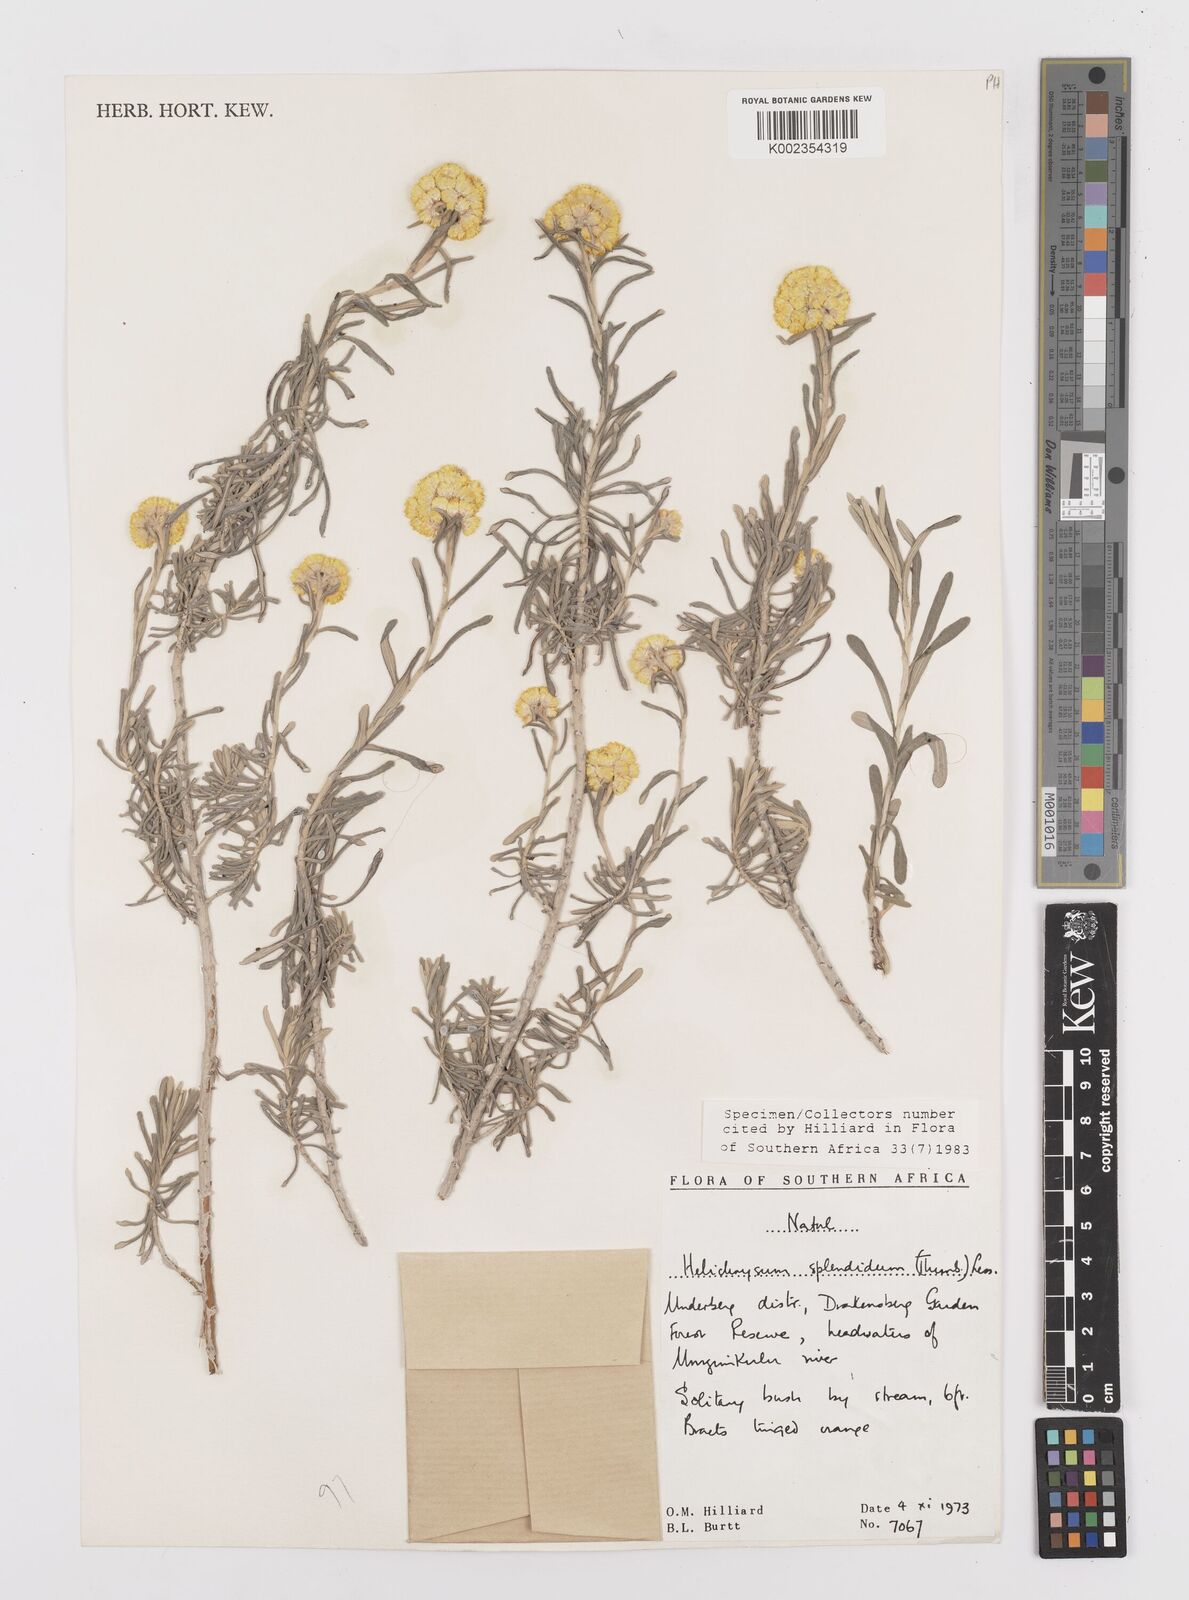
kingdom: Plantae
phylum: Tracheophyta
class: Magnoliopsida
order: Asterales
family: Asteraceae
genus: Helichrysum
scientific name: Helichrysum splendidum
